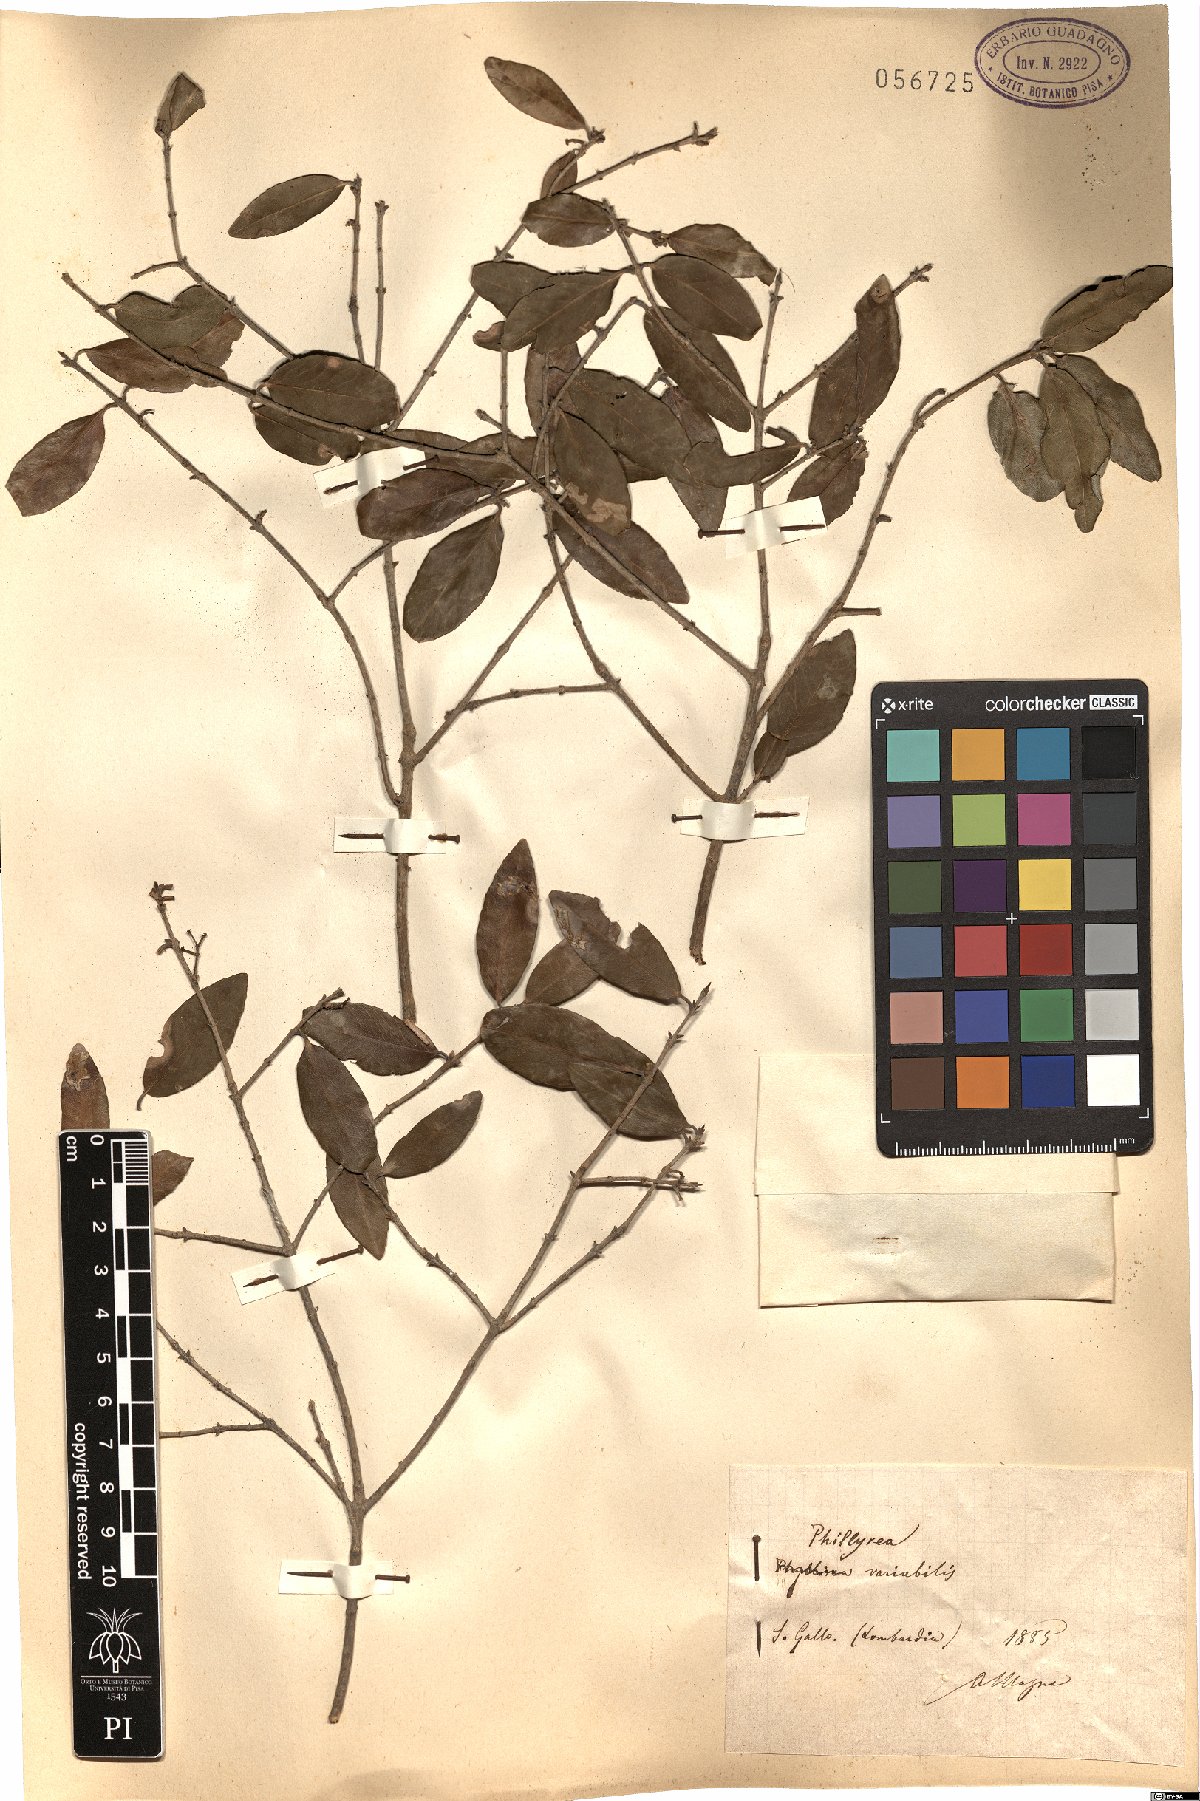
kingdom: Plantae
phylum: Tracheophyta
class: Magnoliopsida
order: Lamiales
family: Oleaceae
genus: Phillyrea
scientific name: Phillyrea latifolia
